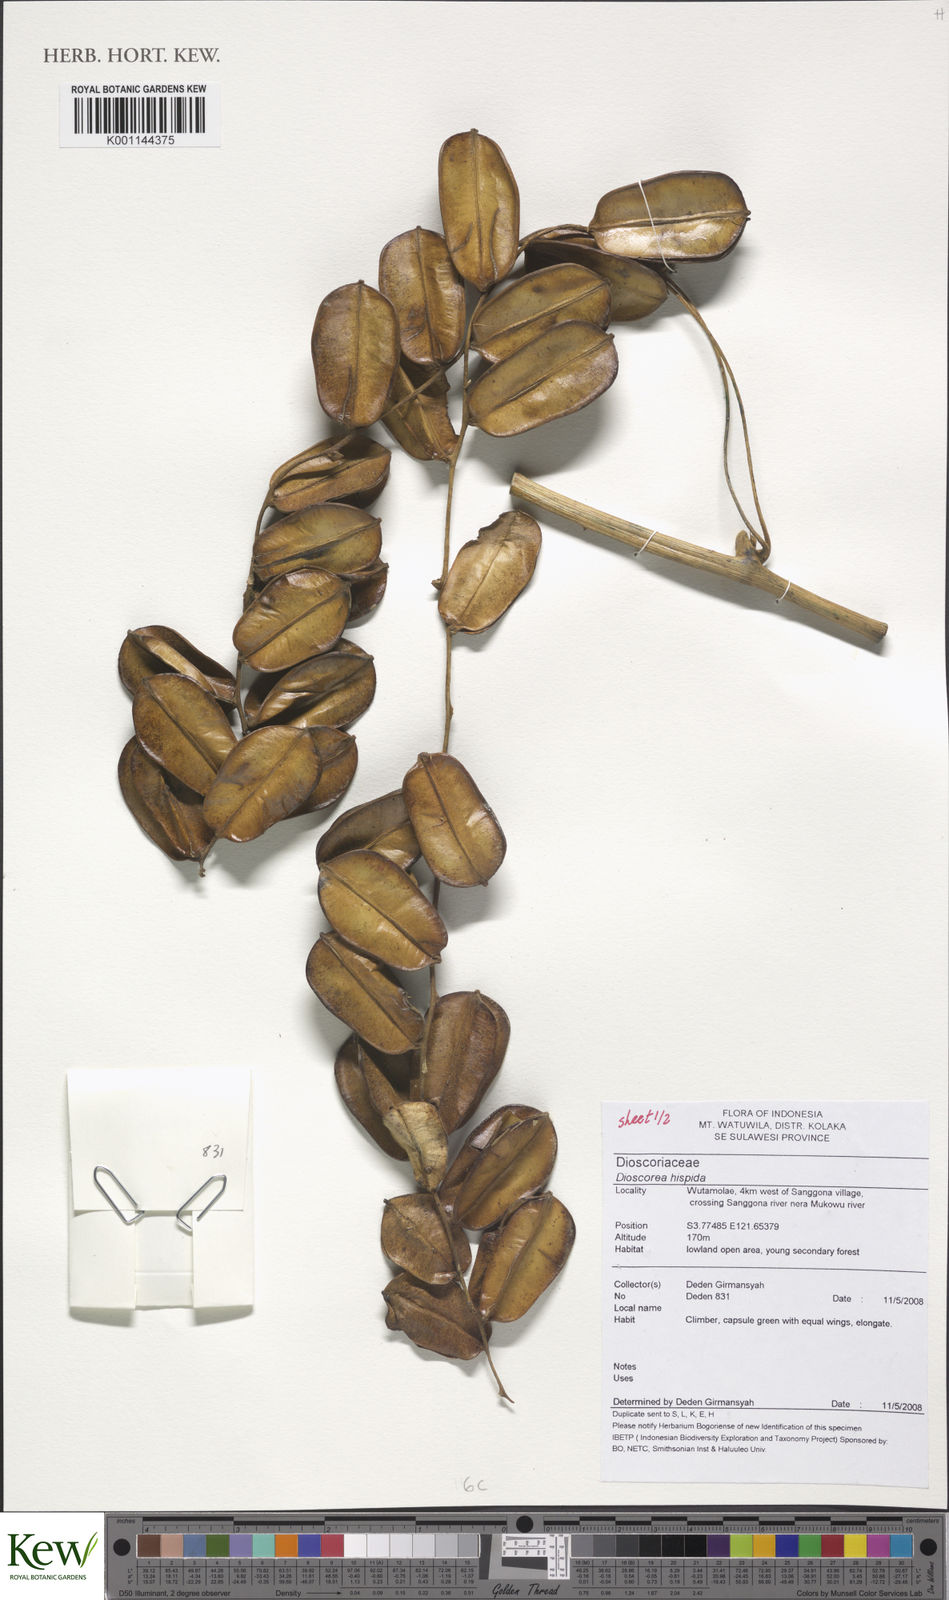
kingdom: Plantae
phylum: Tracheophyta
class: Liliopsida
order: Dioscoreales
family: Dioscoreaceae
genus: Dioscorea
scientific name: Dioscorea hispida
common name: Asiatic bitter yam
